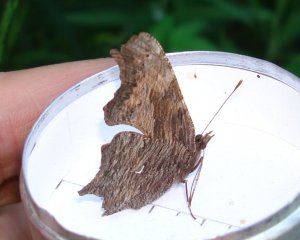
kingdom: Animalia
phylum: Arthropoda
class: Insecta
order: Lepidoptera
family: Nymphalidae
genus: Polygonia
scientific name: Polygonia progne
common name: Gray Comma
